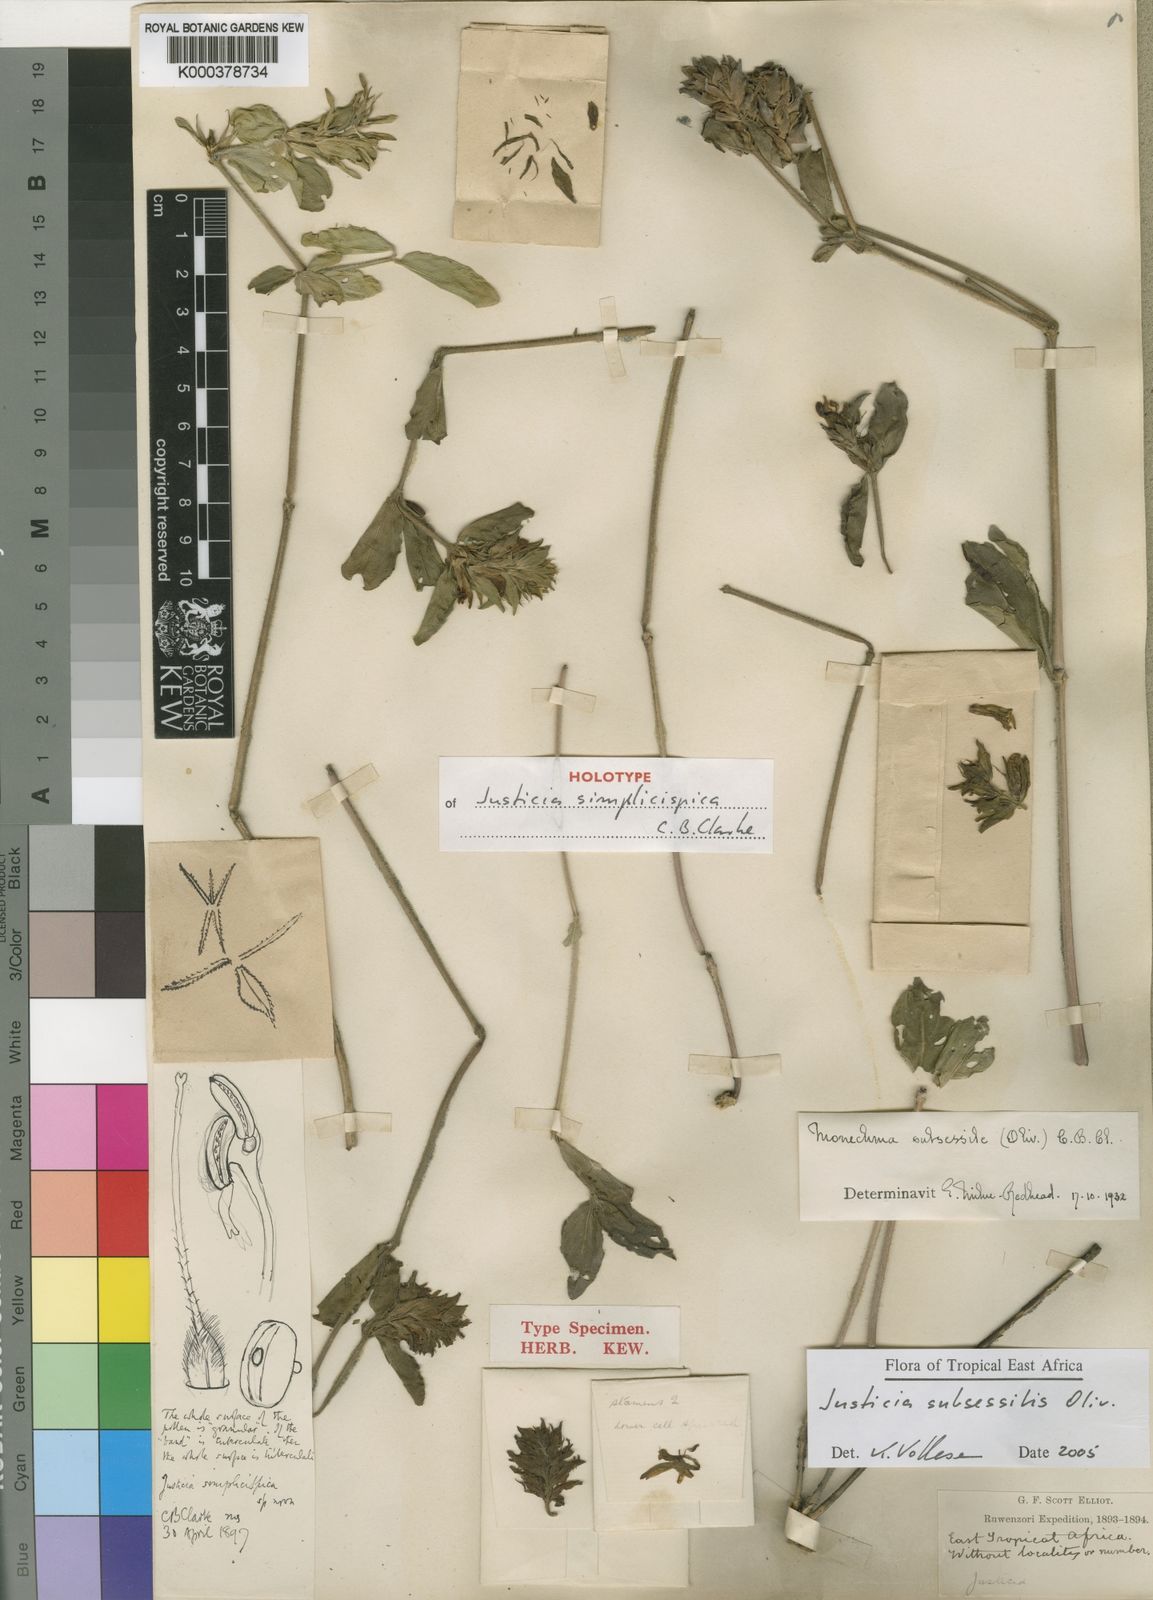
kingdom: Plantae
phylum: Tracheophyta
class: Magnoliopsida
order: Lamiales
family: Acanthaceae
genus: Monechma
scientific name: Monechma subsessile
